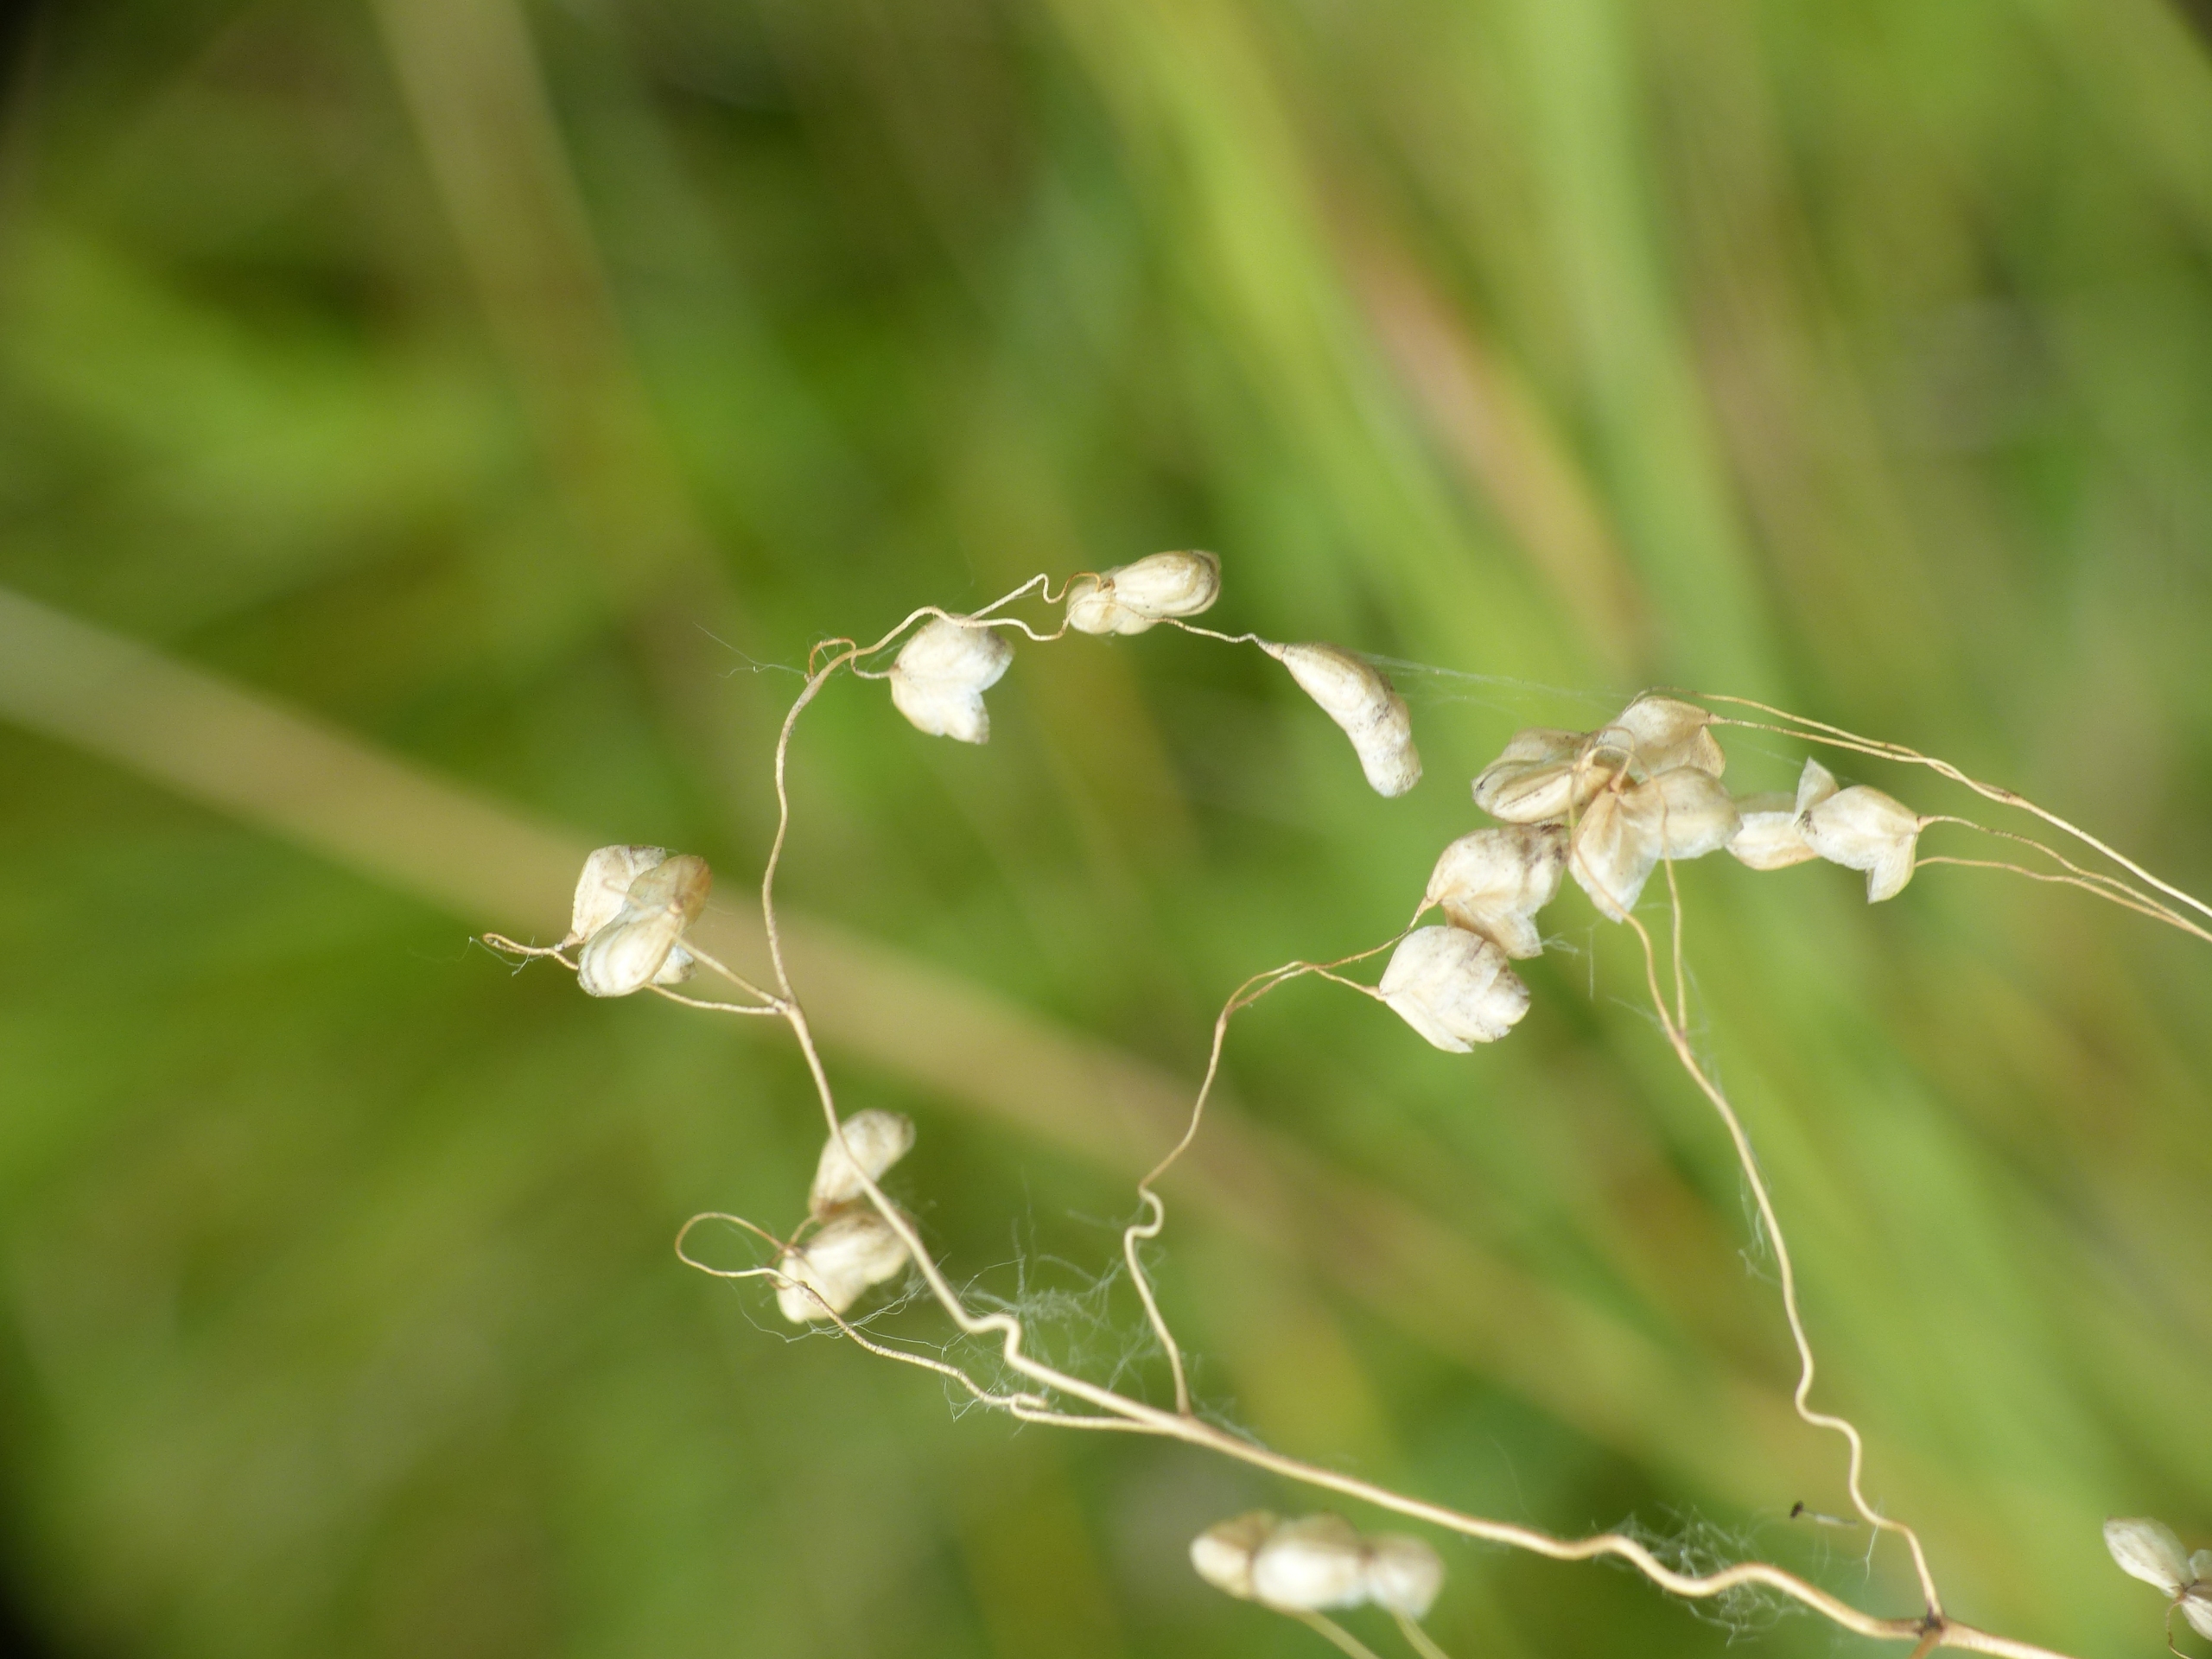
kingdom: Plantae
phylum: Tracheophyta
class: Liliopsida
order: Poales
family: Poaceae
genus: Briza
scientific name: Briza media
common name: Hjertegræs
